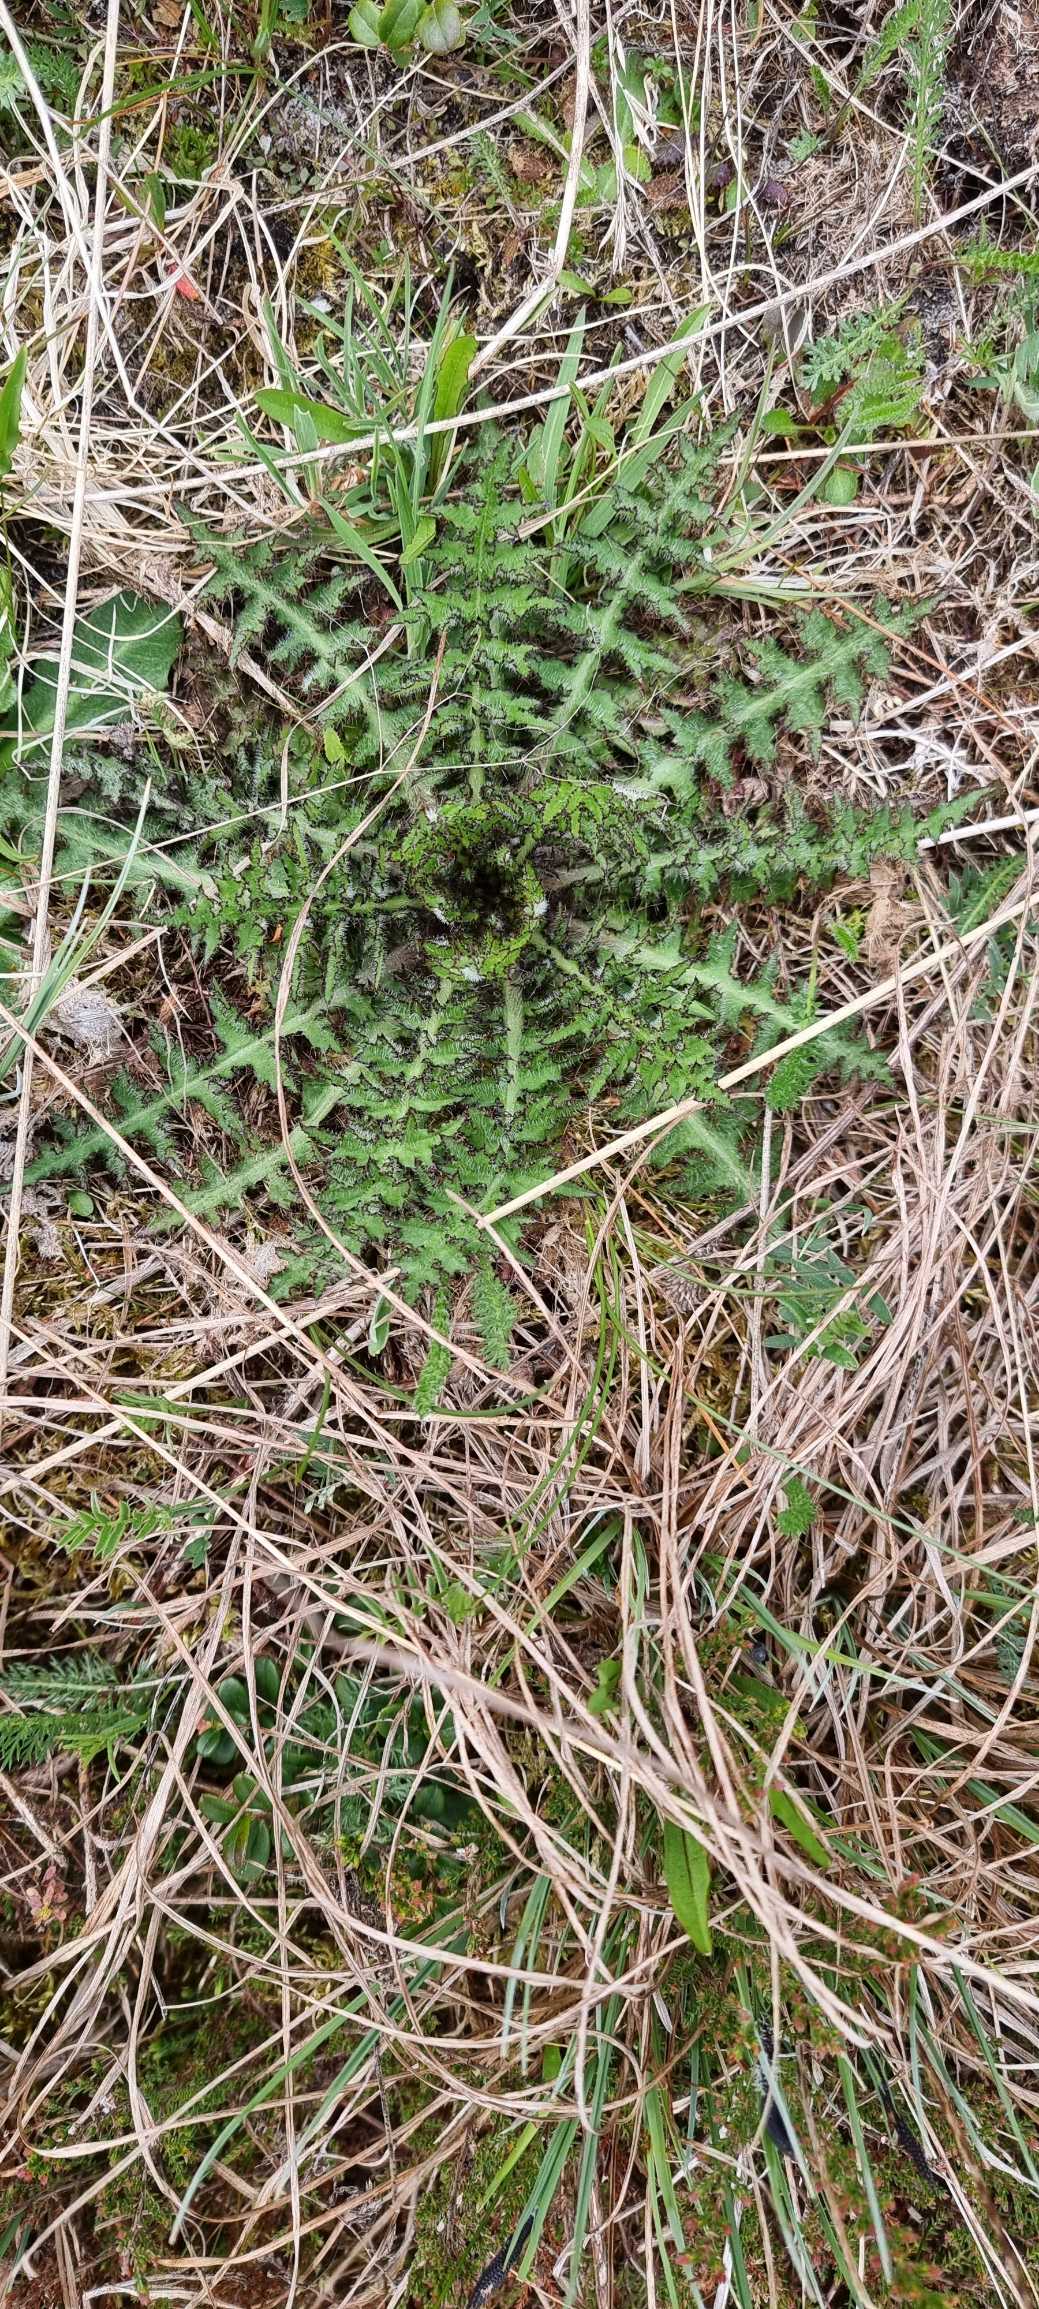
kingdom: Plantae
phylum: Tracheophyta
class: Magnoliopsida
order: Asterales
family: Asteraceae
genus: Cirsium
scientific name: Cirsium palustre
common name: Kær-tidsel
